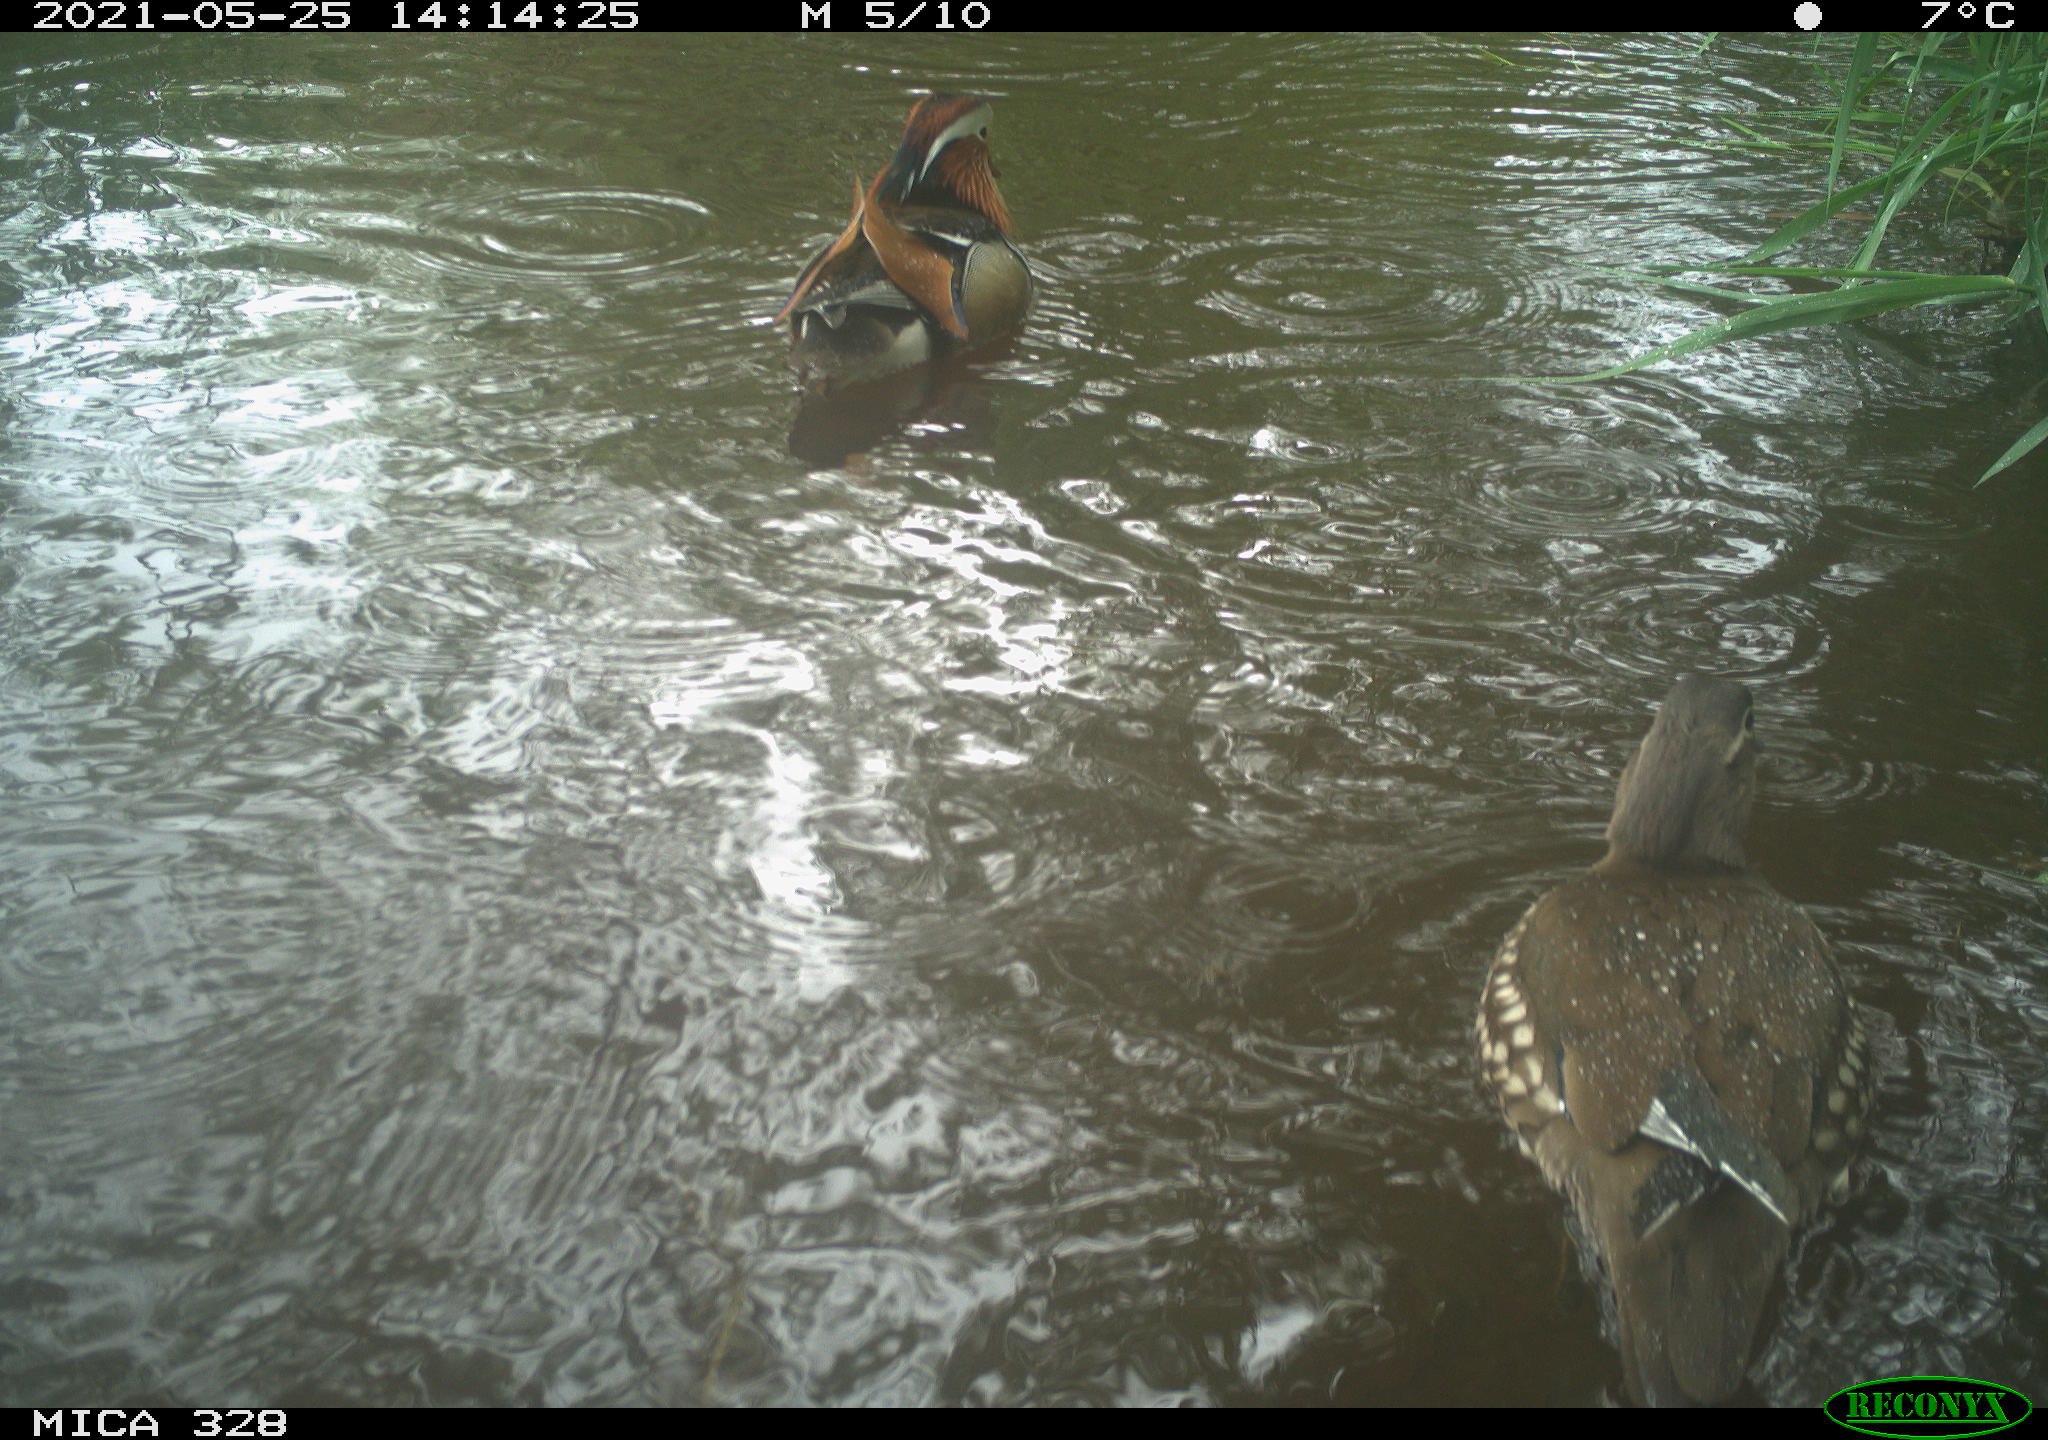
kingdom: Animalia
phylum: Chordata
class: Aves
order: Anseriformes
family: Anatidae
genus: Aix
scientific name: Aix galericulata
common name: Mandarin duck
